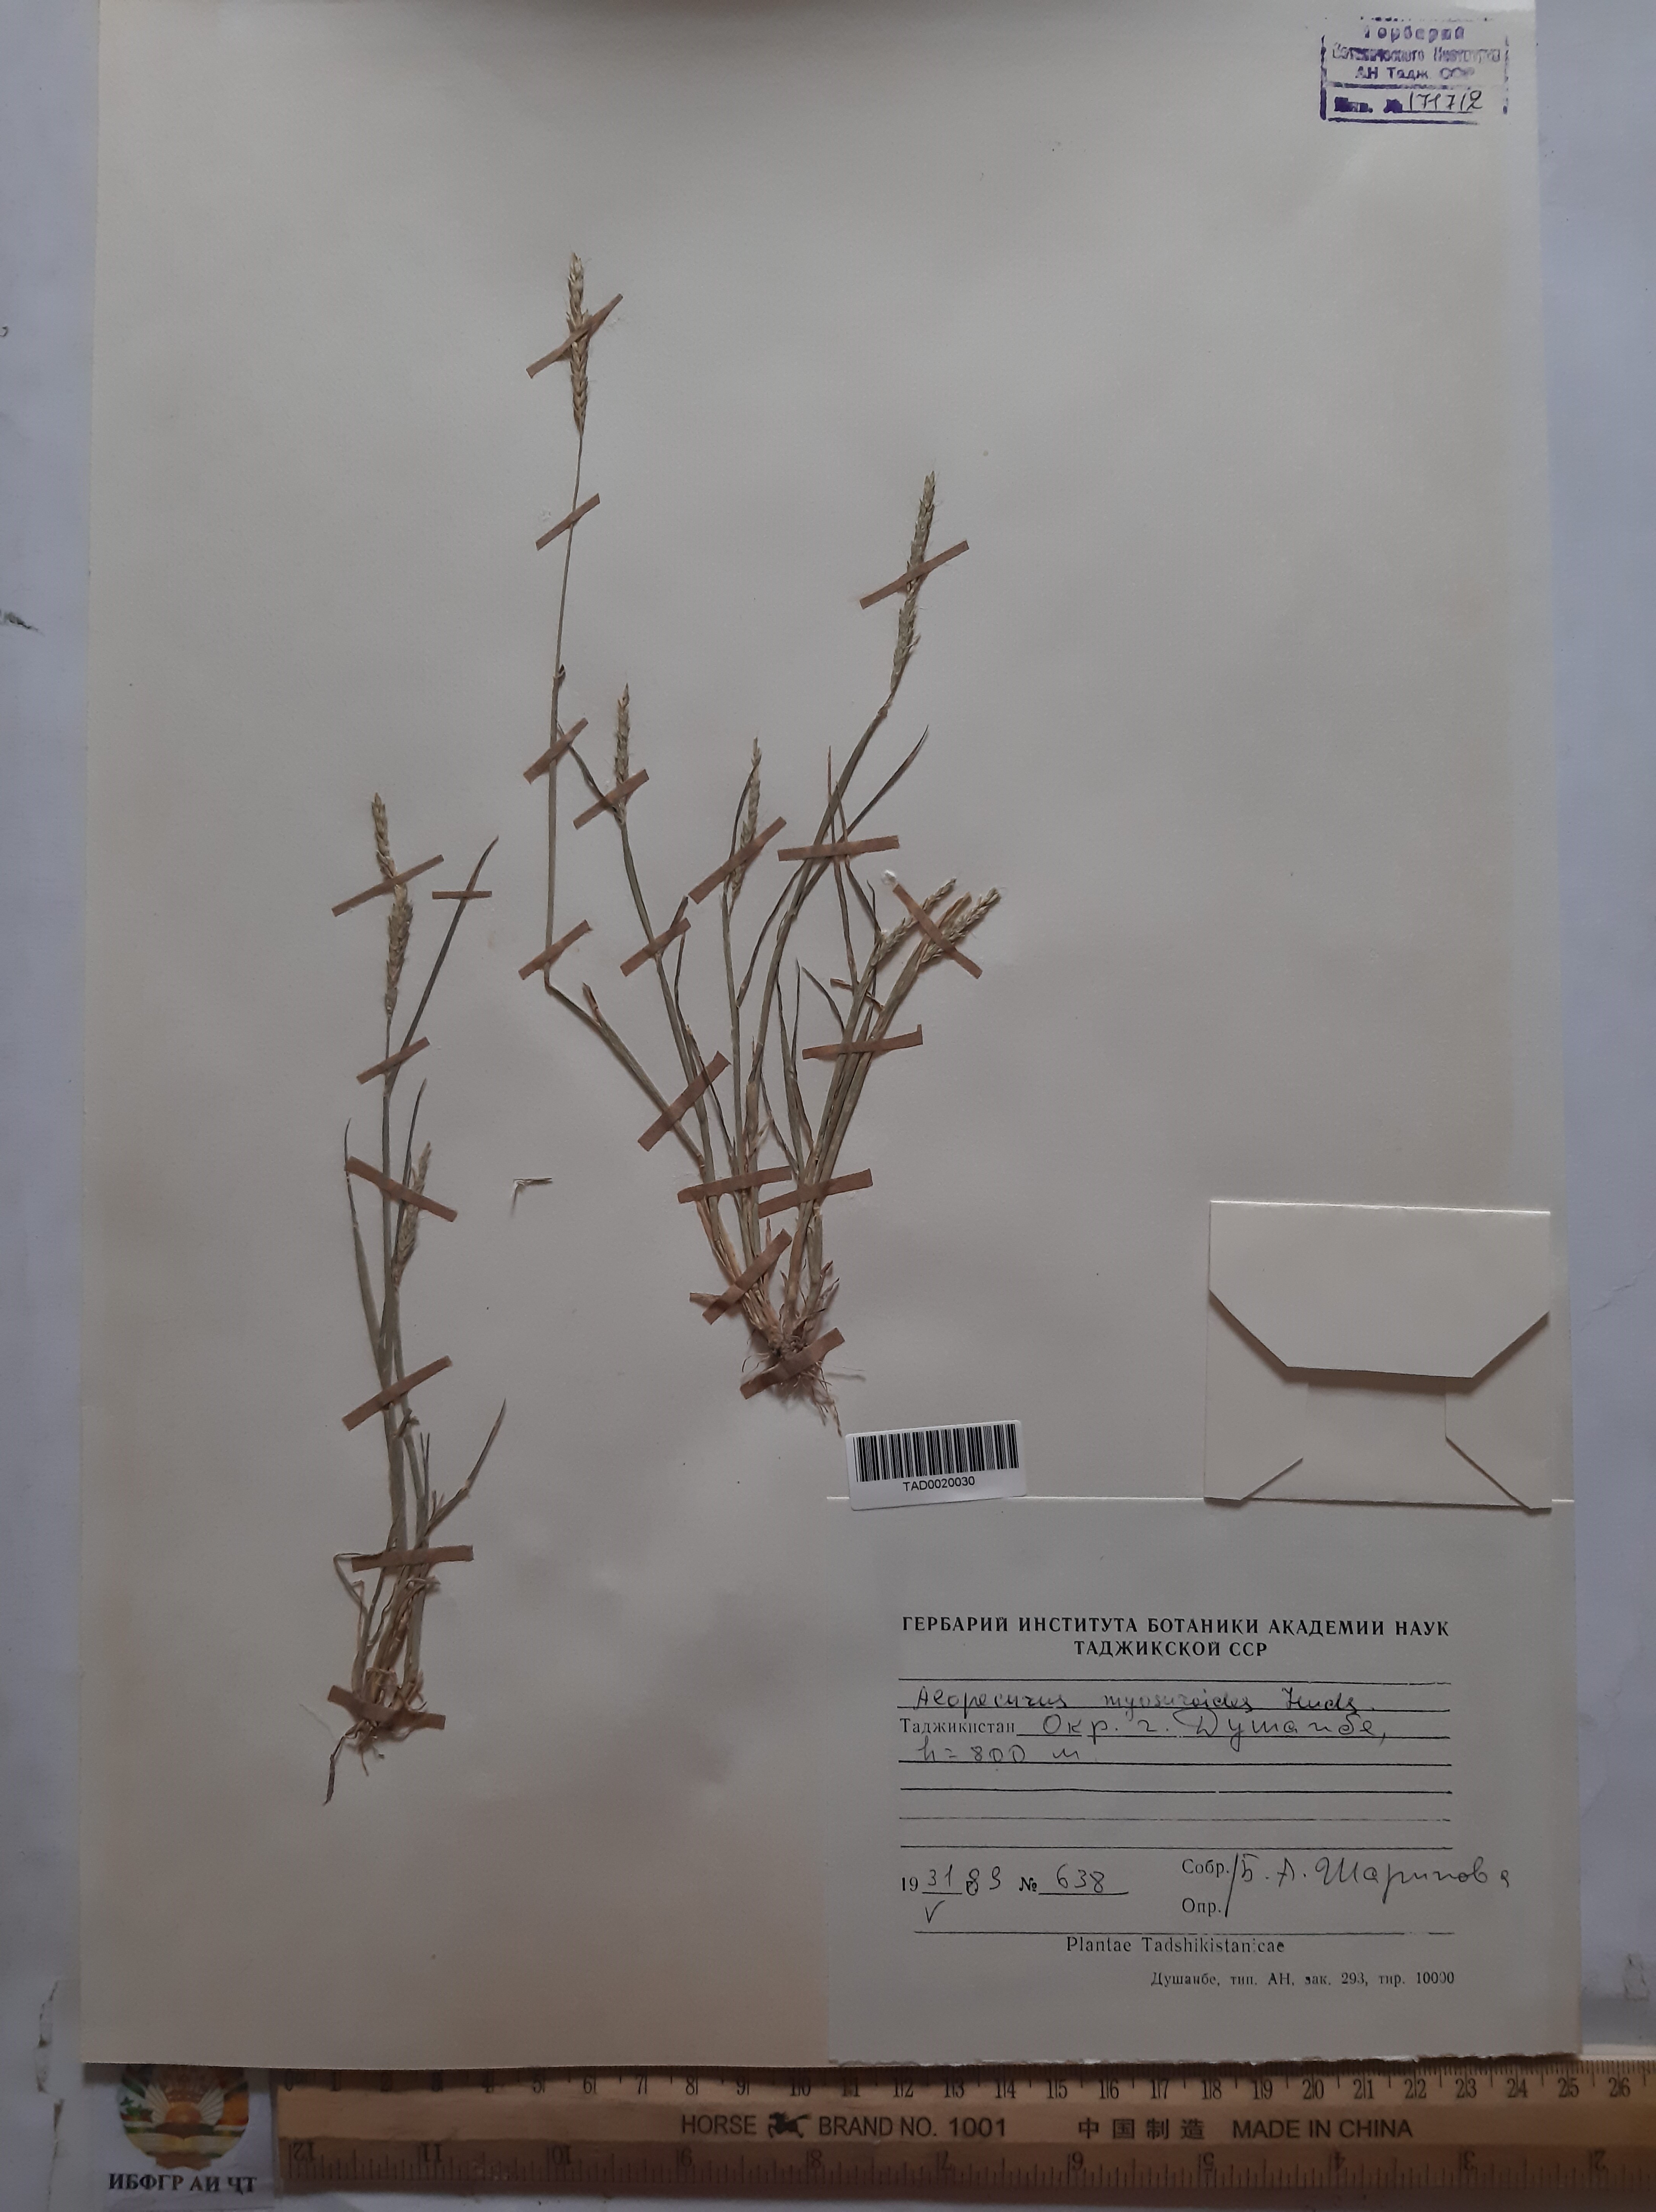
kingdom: Plantae
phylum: Tracheophyta
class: Liliopsida
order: Poales
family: Poaceae
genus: Alopecurus
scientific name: Alopecurus mucronatus
